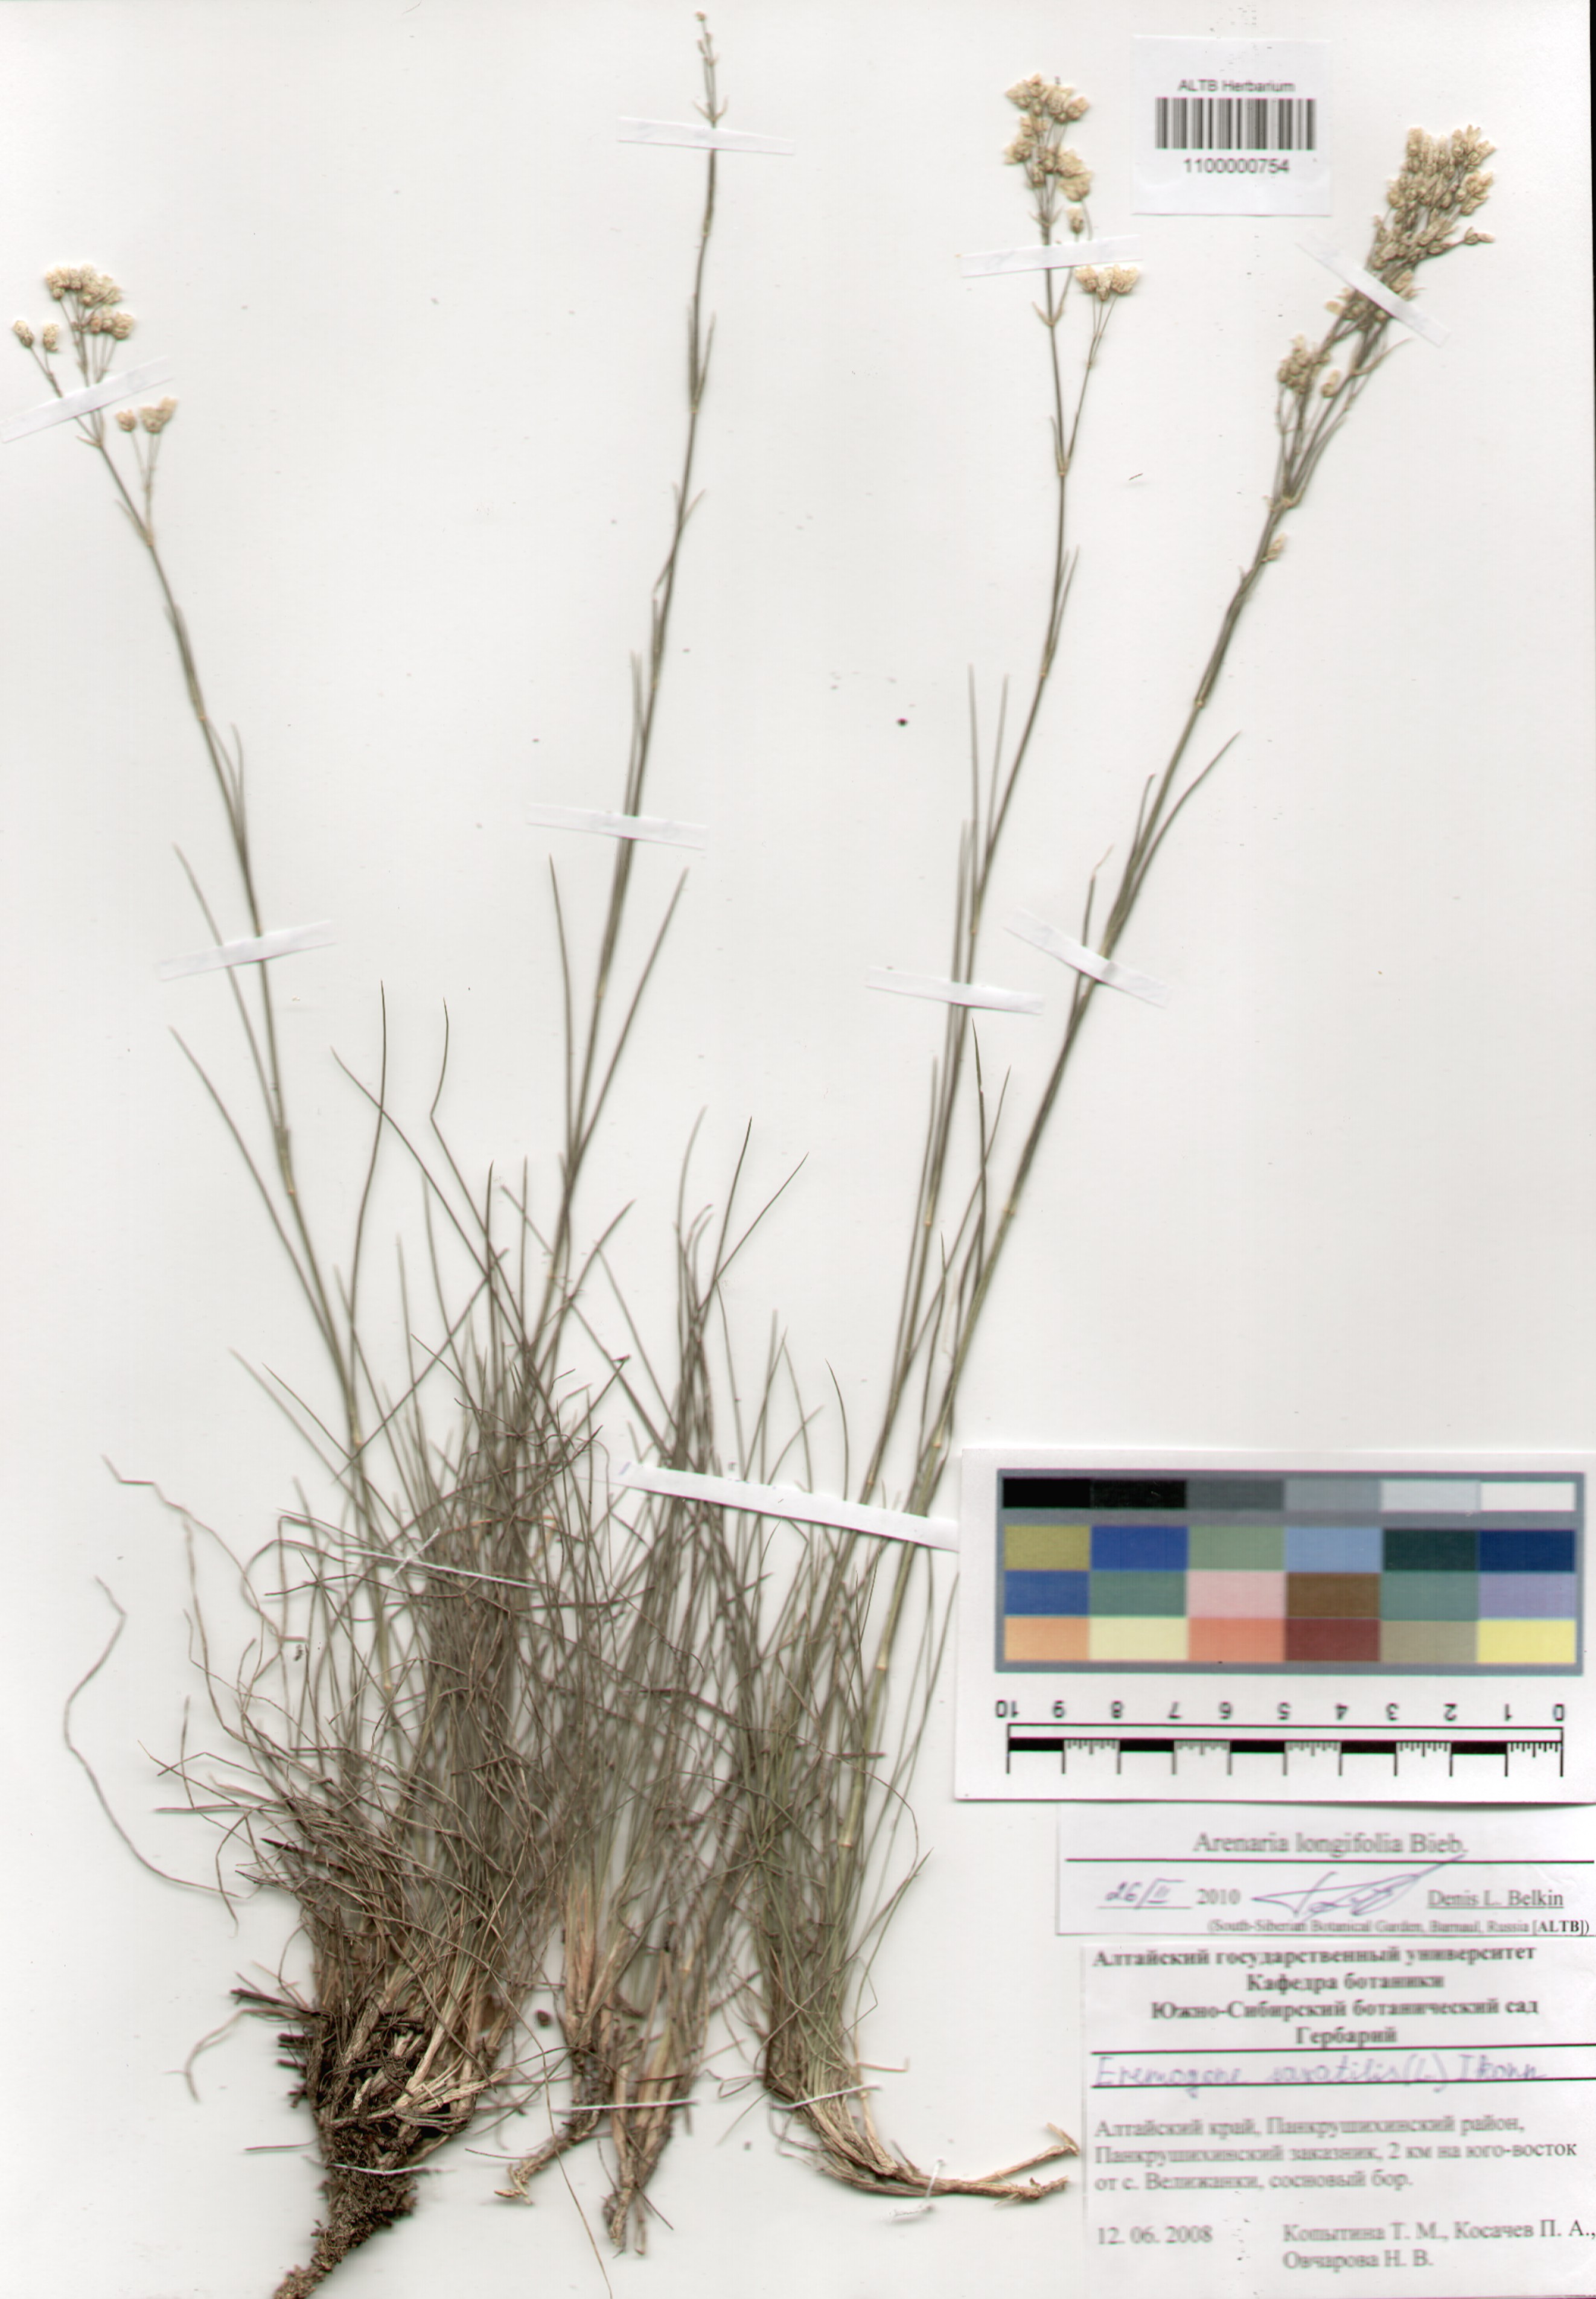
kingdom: Plantae
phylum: Tracheophyta
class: Magnoliopsida
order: Caryophyllales
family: Caryophyllaceae
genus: Eremogone
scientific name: Eremogone longifolia
